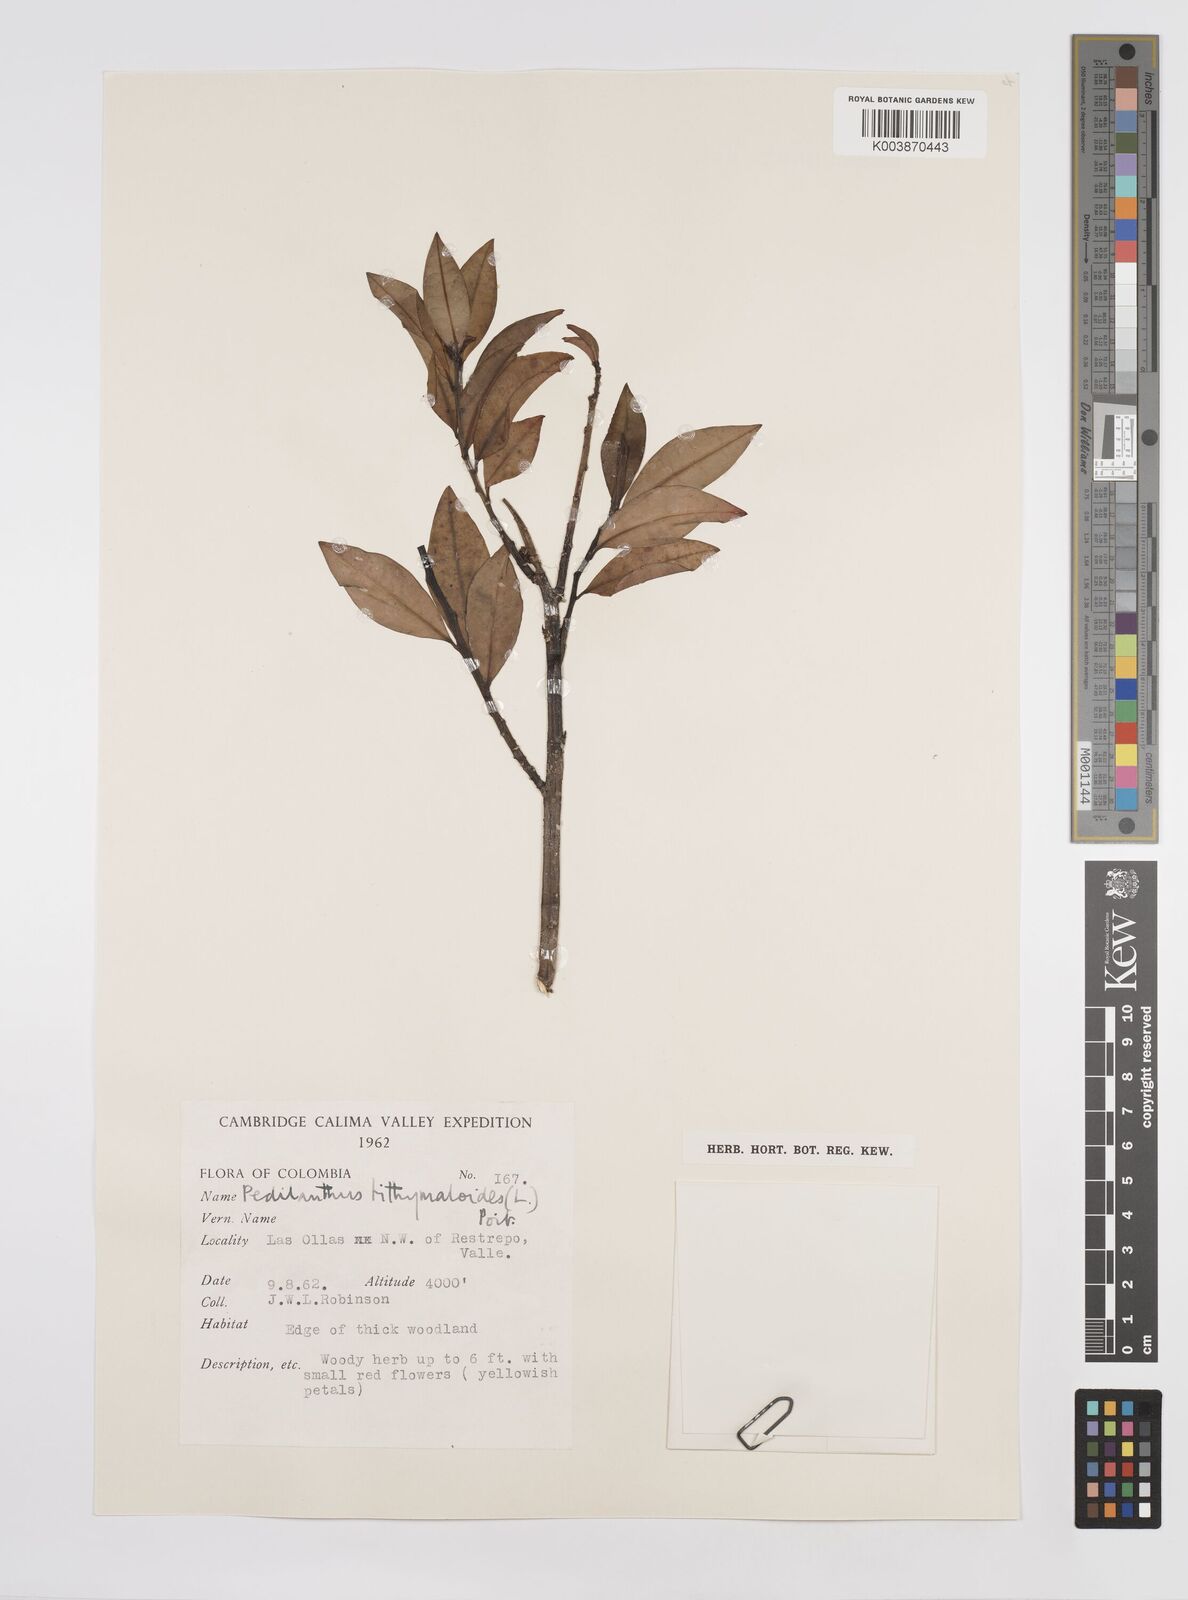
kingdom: Plantae
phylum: Tracheophyta
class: Magnoliopsida
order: Malpighiales
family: Euphorbiaceae
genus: Euphorbia
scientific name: Euphorbia tithymaloides
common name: Slipperplant
